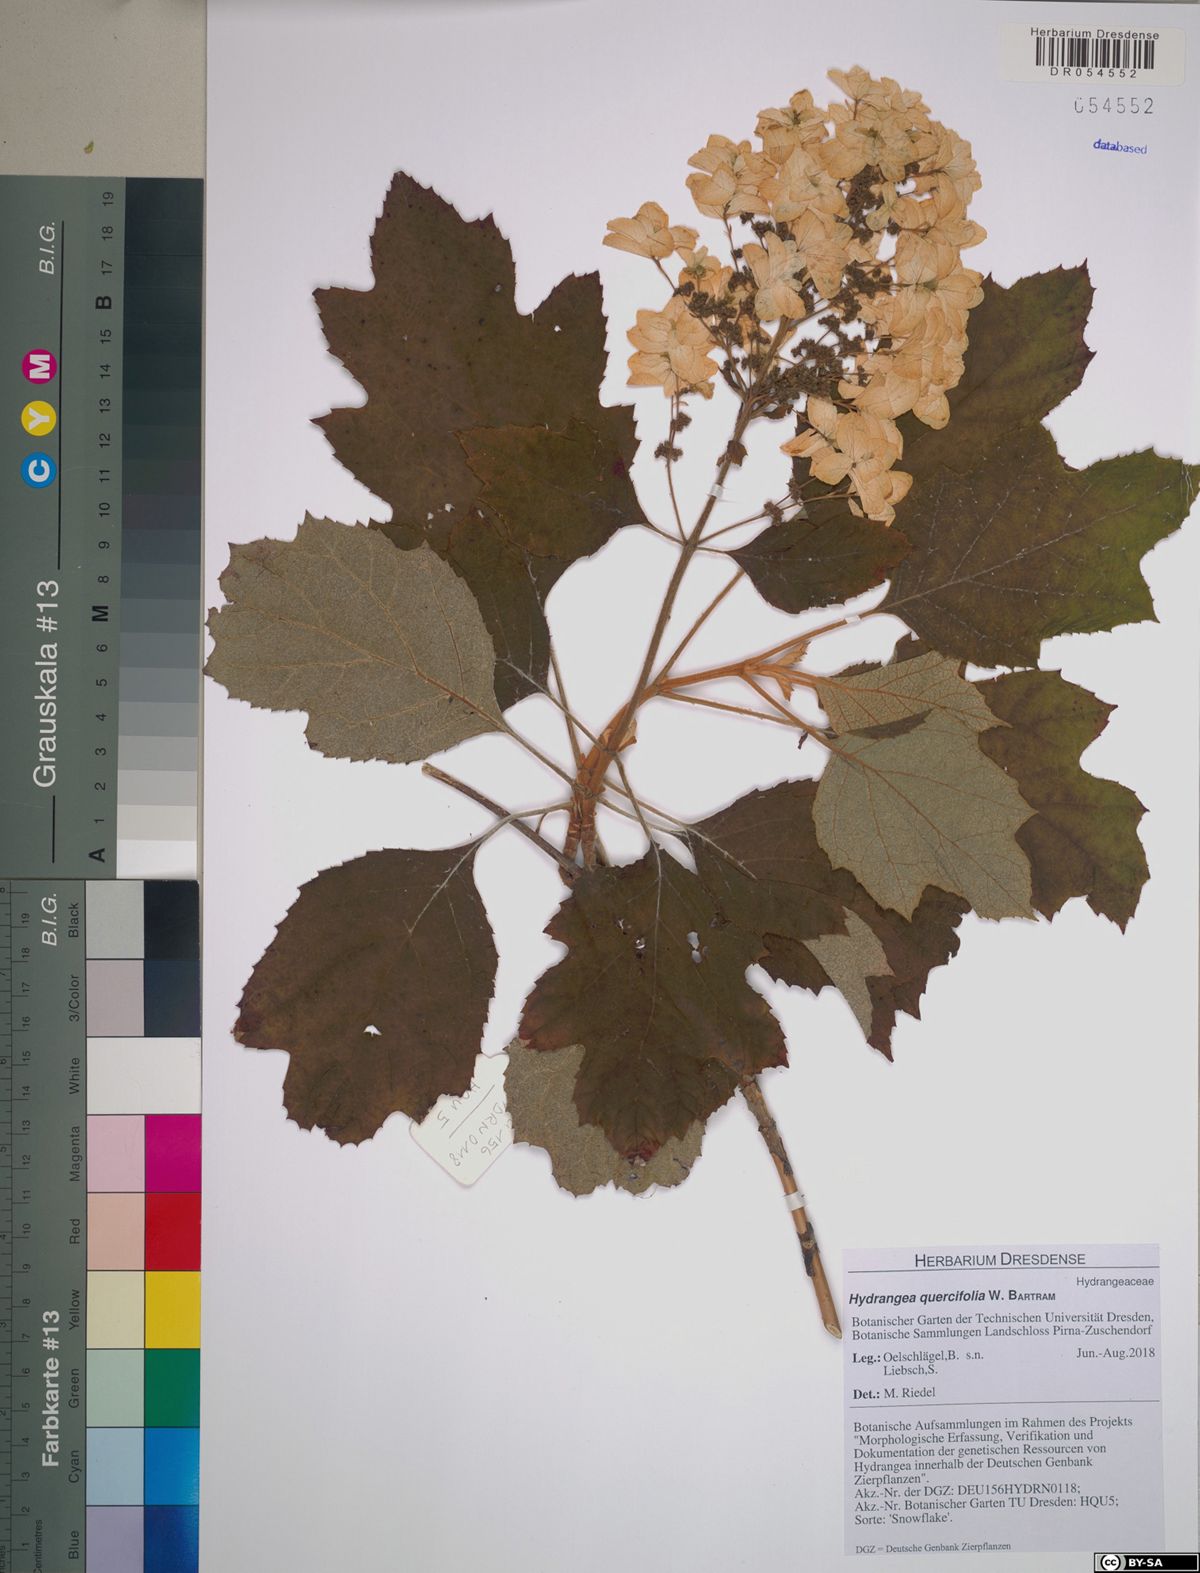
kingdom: Plantae
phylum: Tracheophyta
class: Magnoliopsida
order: Cornales
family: Hydrangeaceae
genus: Hydrangea
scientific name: Hydrangea quercifolia
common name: Oak-leaf hydrangea
